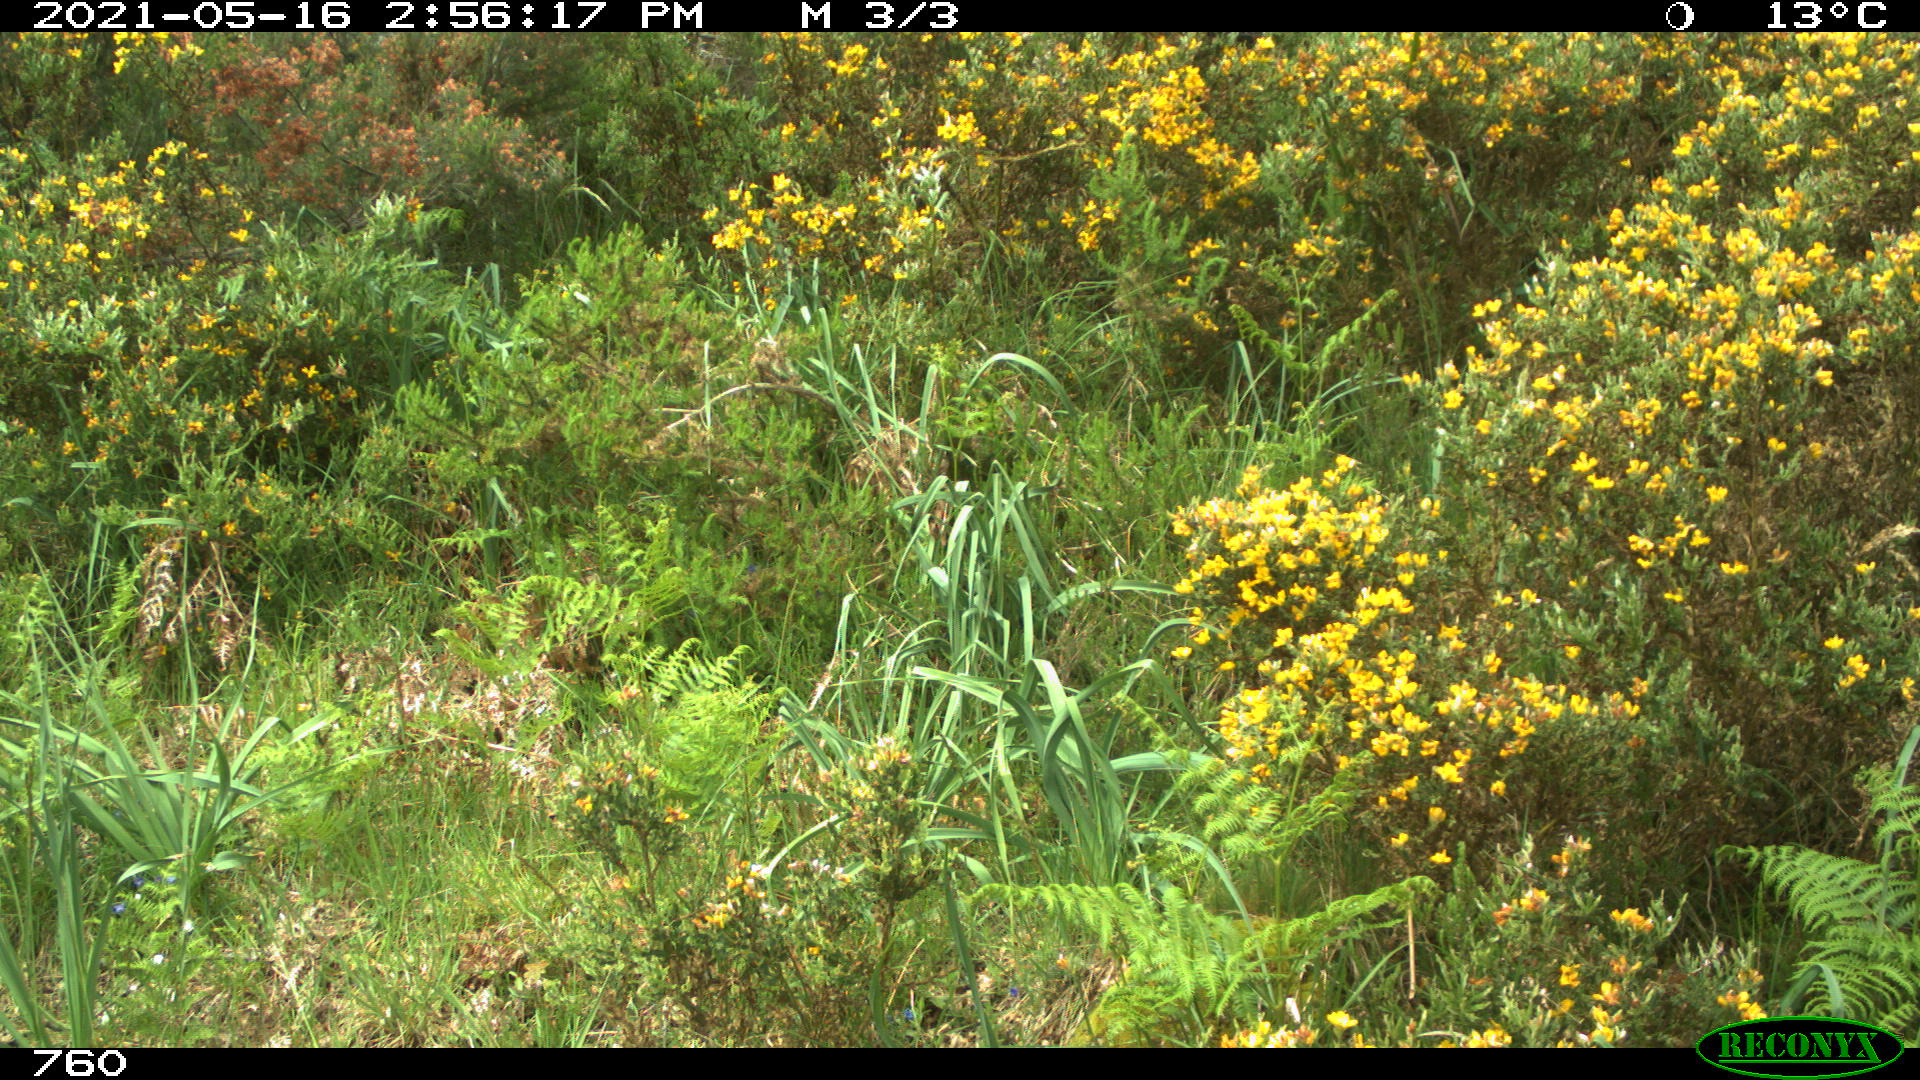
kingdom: Animalia
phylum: Chordata
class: Mammalia
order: Artiodactyla
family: Cervidae
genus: Capreolus
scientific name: Capreolus capreolus
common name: Western roe deer
